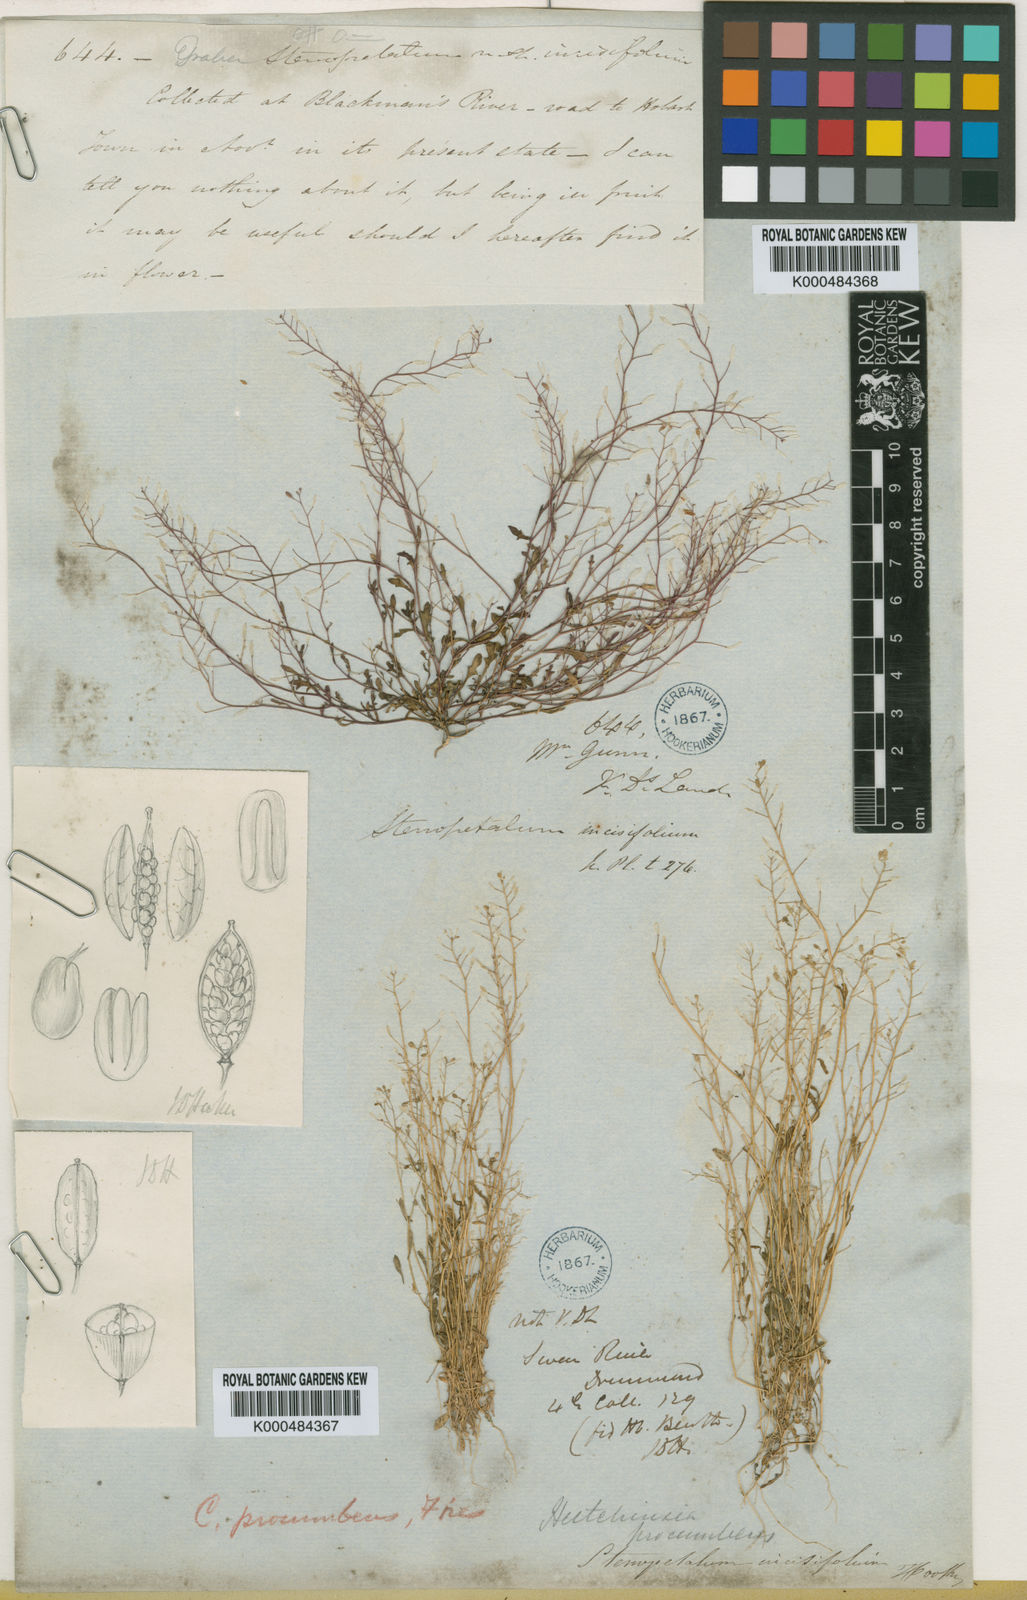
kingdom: Plantae
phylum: Tracheophyta
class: Magnoliopsida
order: Brassicales
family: Brassicaceae
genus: Hornungia
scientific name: Hornungia procumbens
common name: Oval purse
